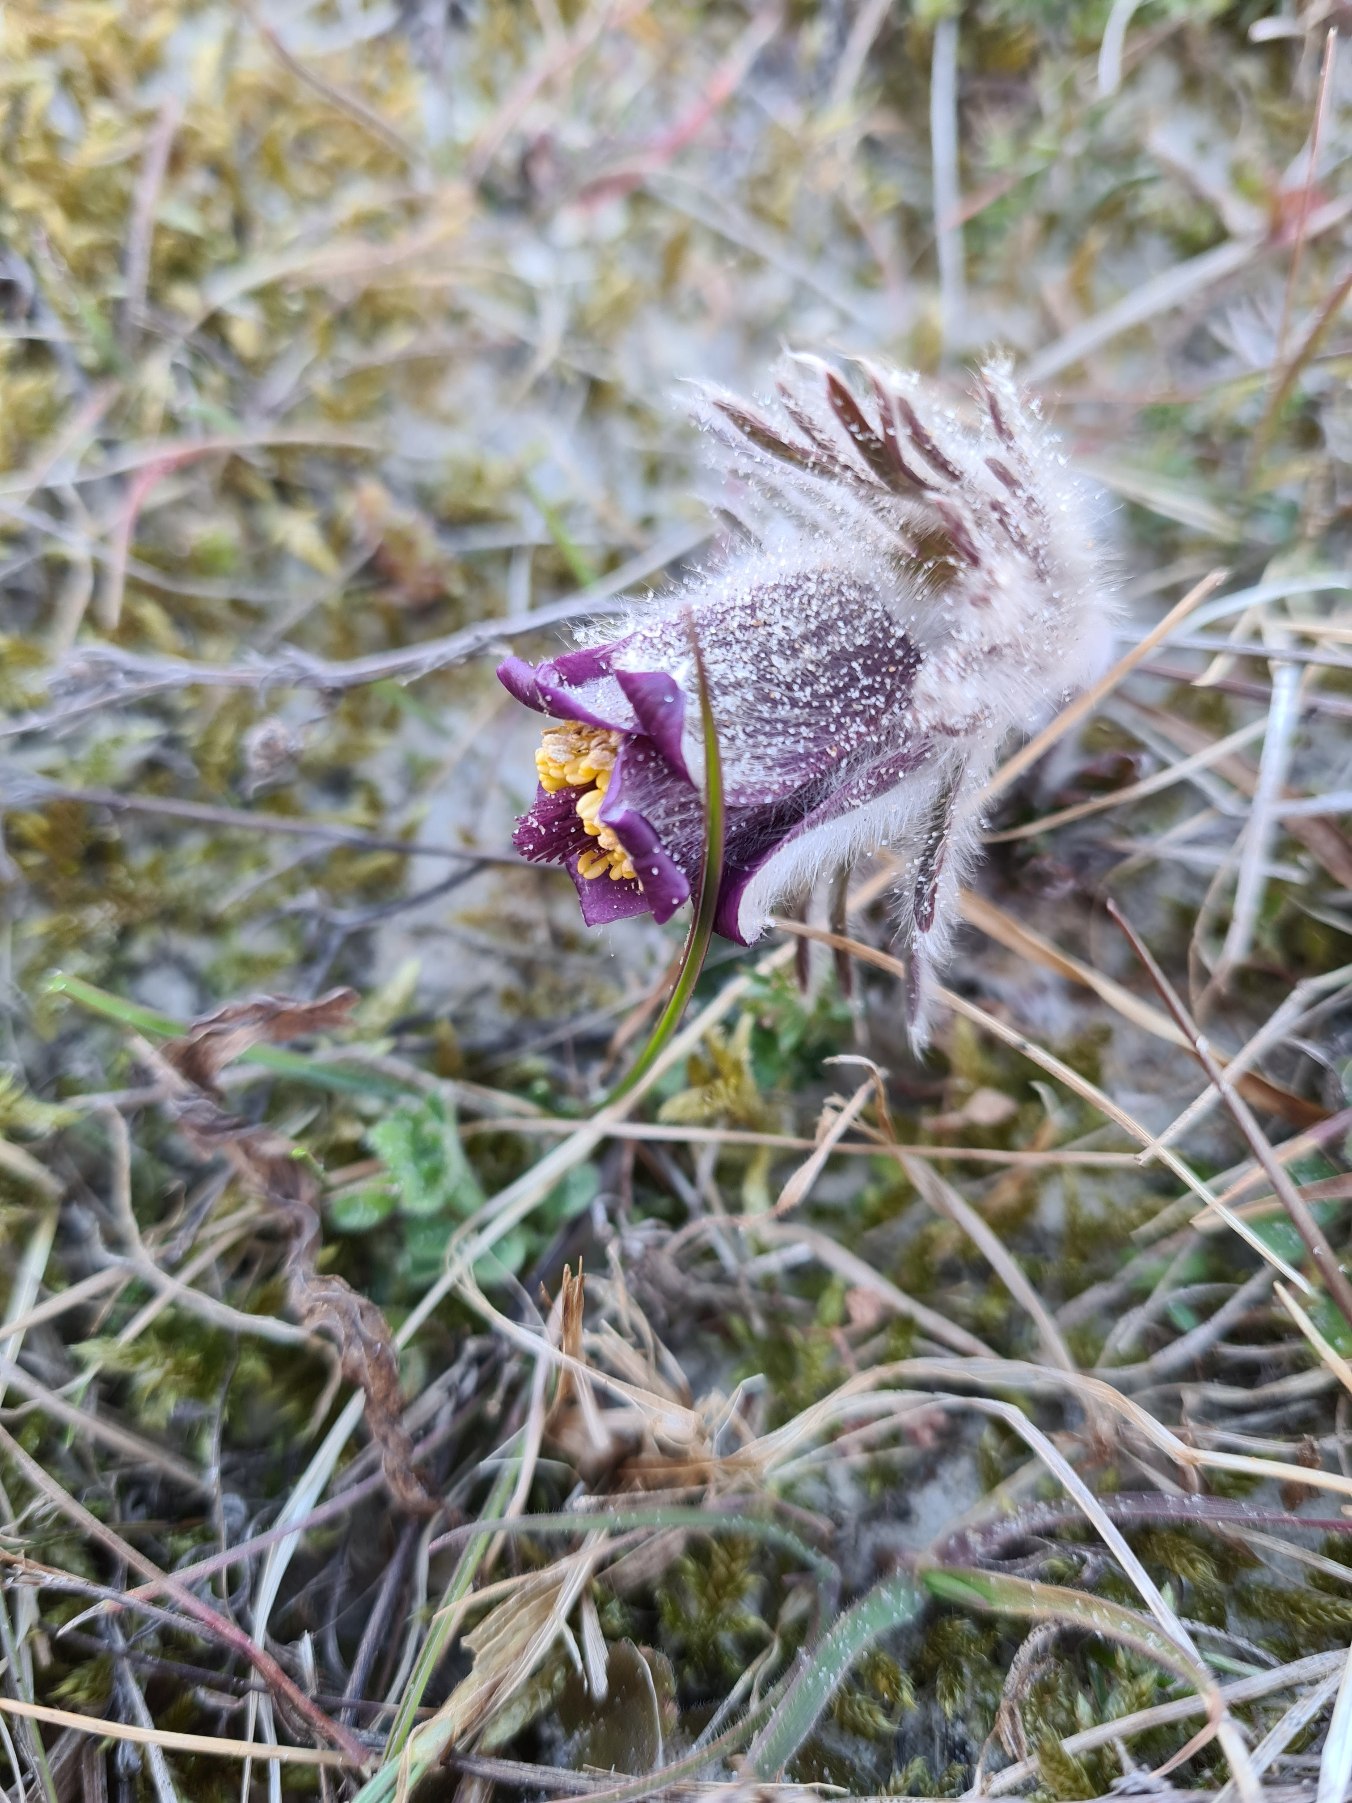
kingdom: Plantae
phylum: Tracheophyta
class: Magnoliopsida
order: Ranunculales
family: Ranunculaceae
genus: Pulsatilla
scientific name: Pulsatilla pratensis
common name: Nikkende kobjælde
